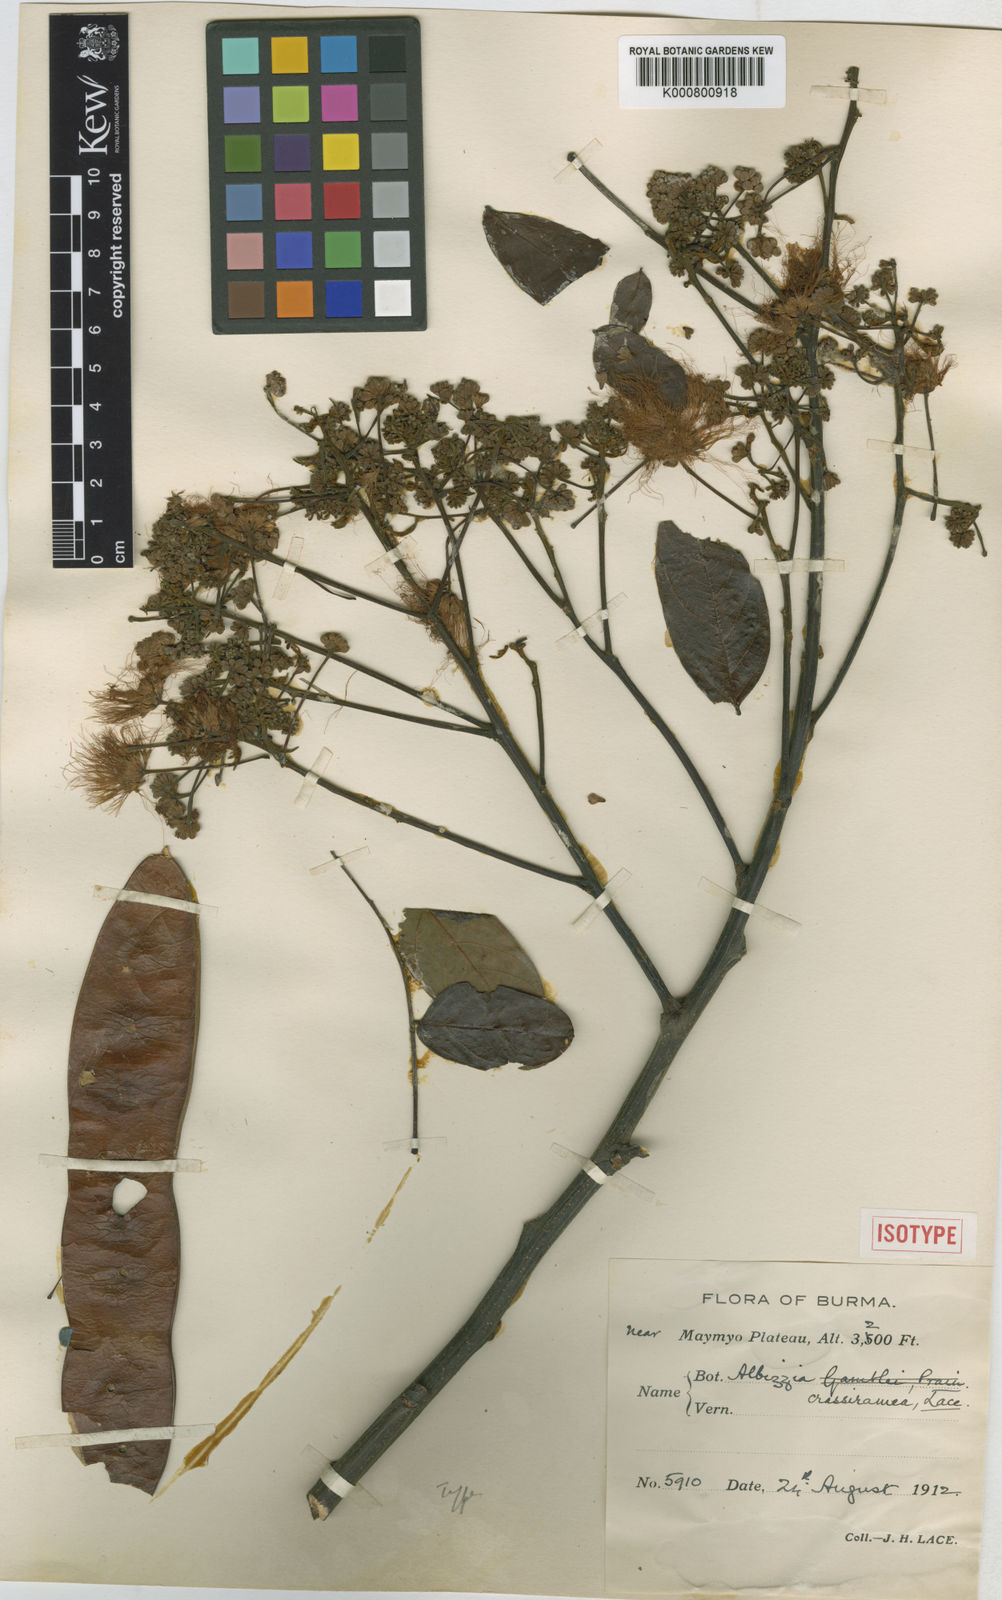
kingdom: Plantae
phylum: Tracheophyta
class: Magnoliopsida
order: Fabales
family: Fabaceae
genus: Albizia
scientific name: Albizia crassiramea
